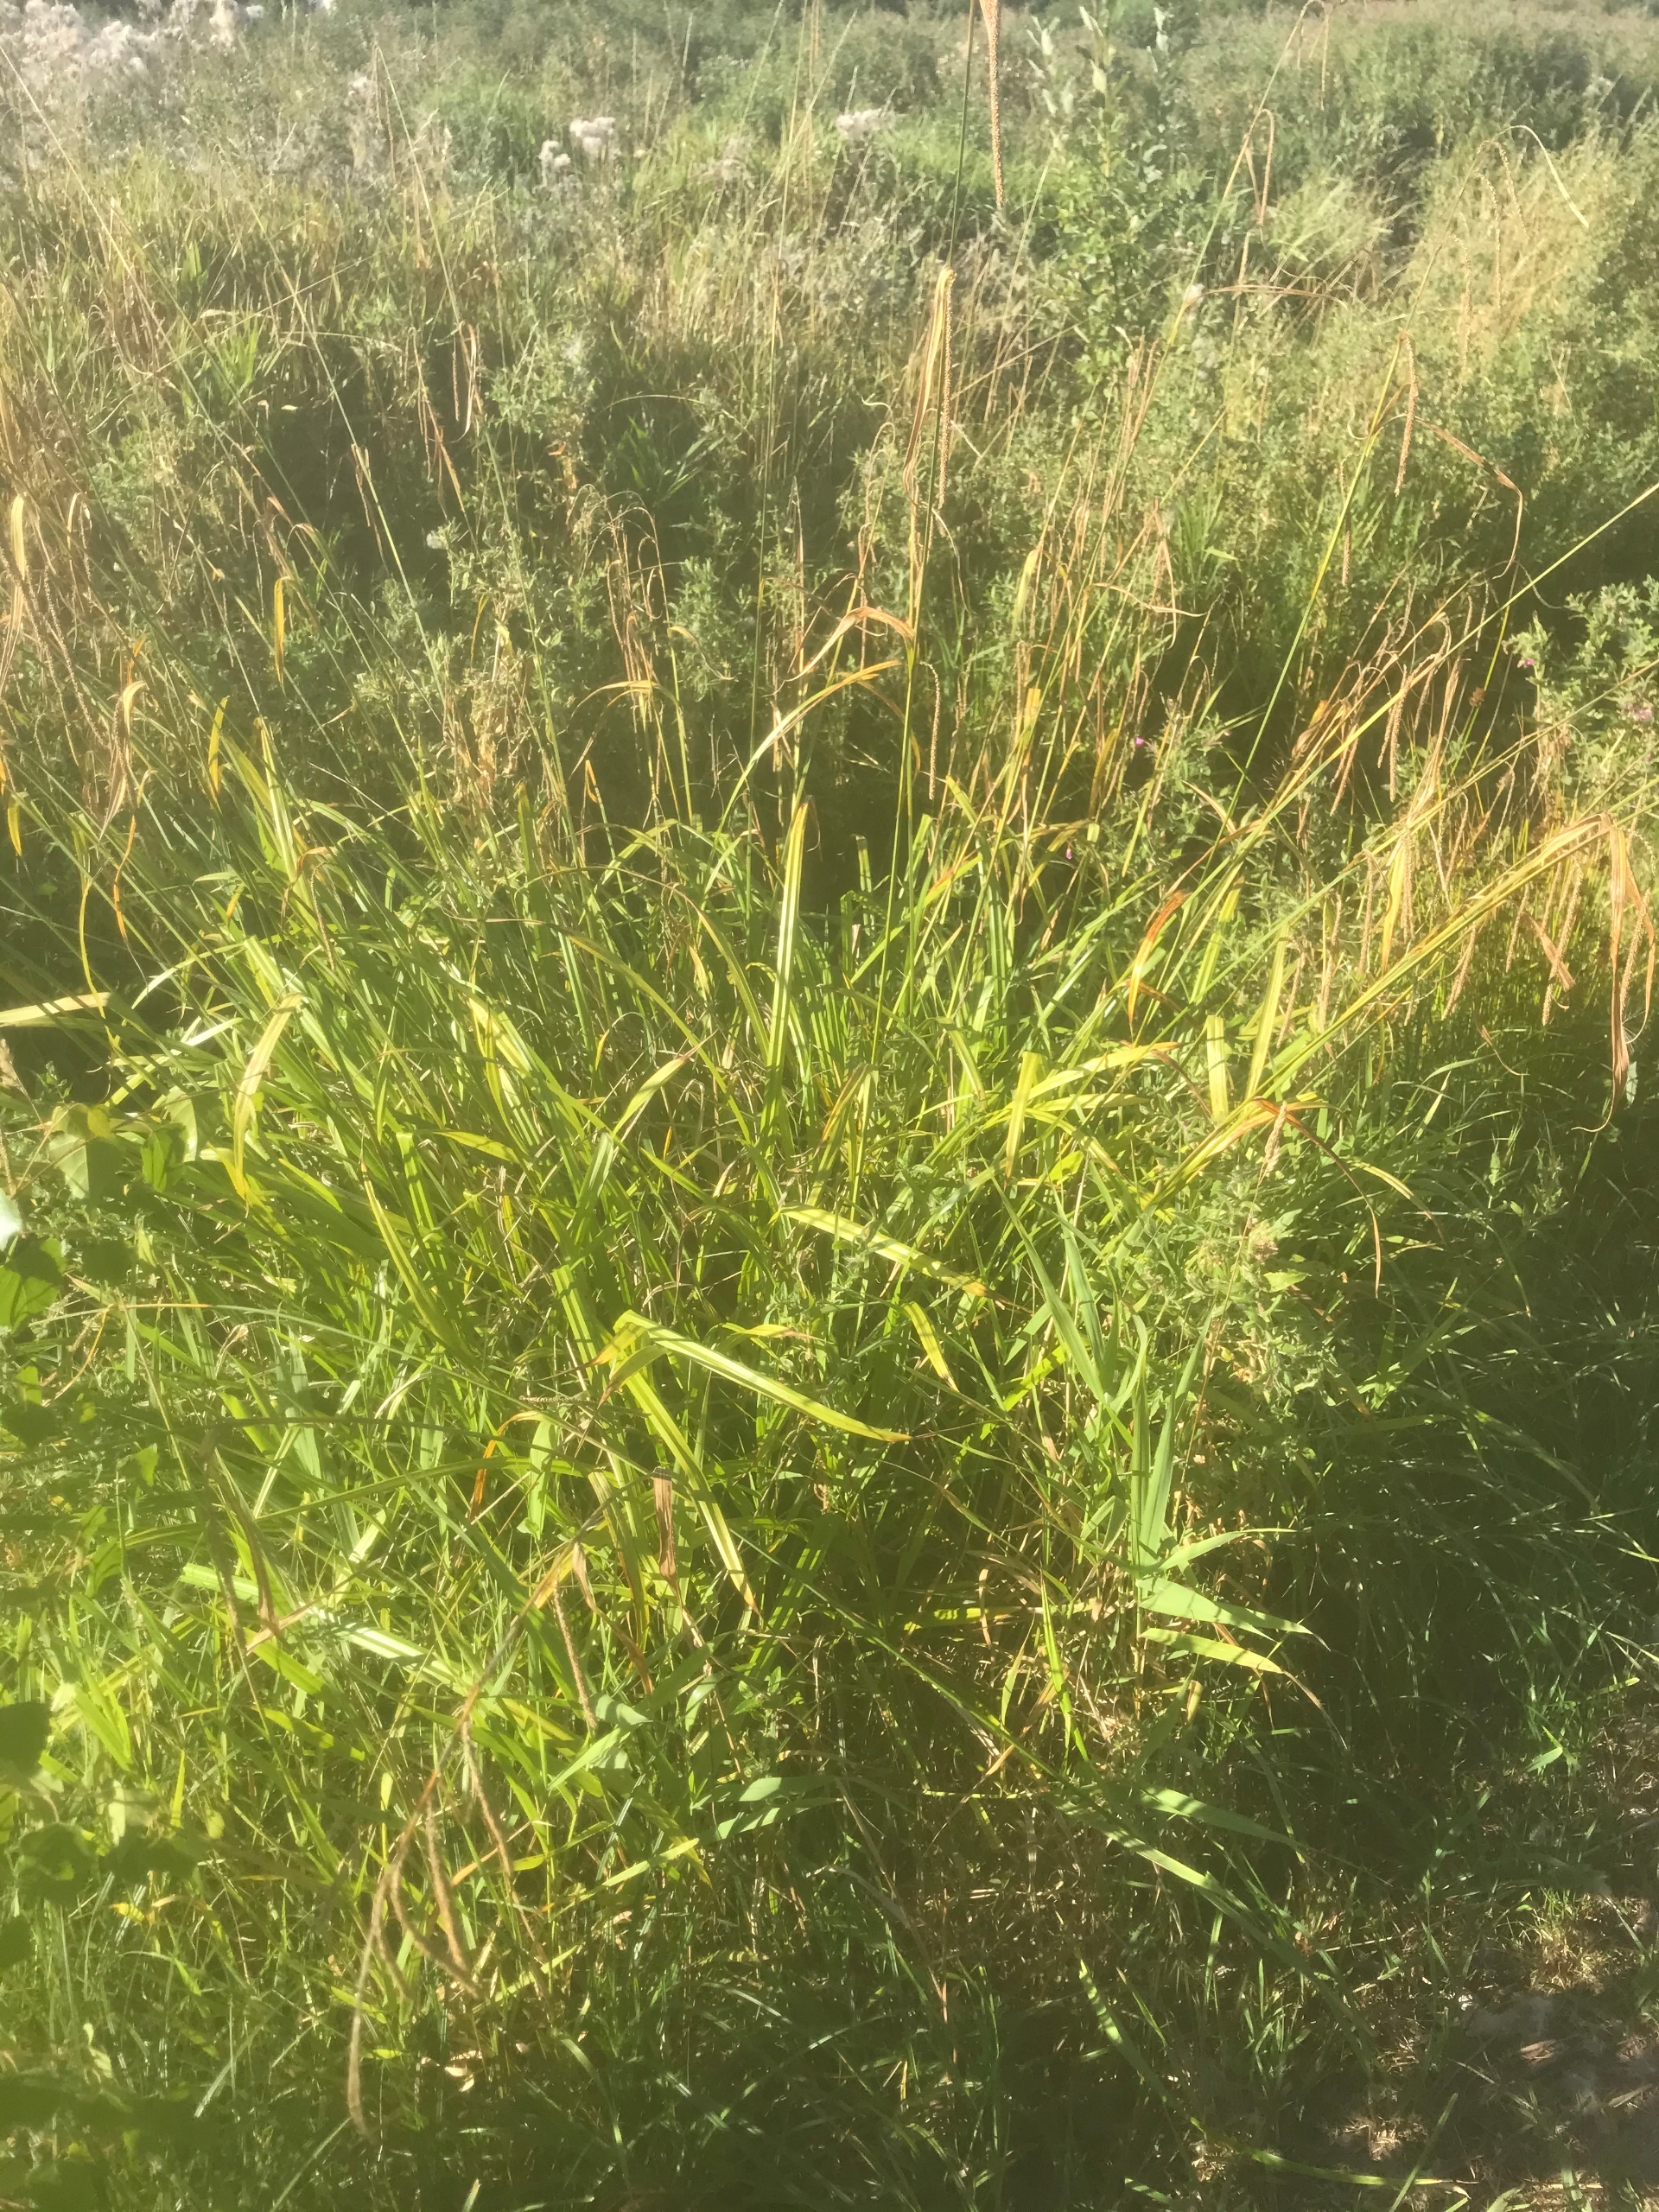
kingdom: Plantae
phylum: Tracheophyta
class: Liliopsida
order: Poales
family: Cyperaceae
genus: Carex
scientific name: Carex pendula
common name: Kæmpe-star
